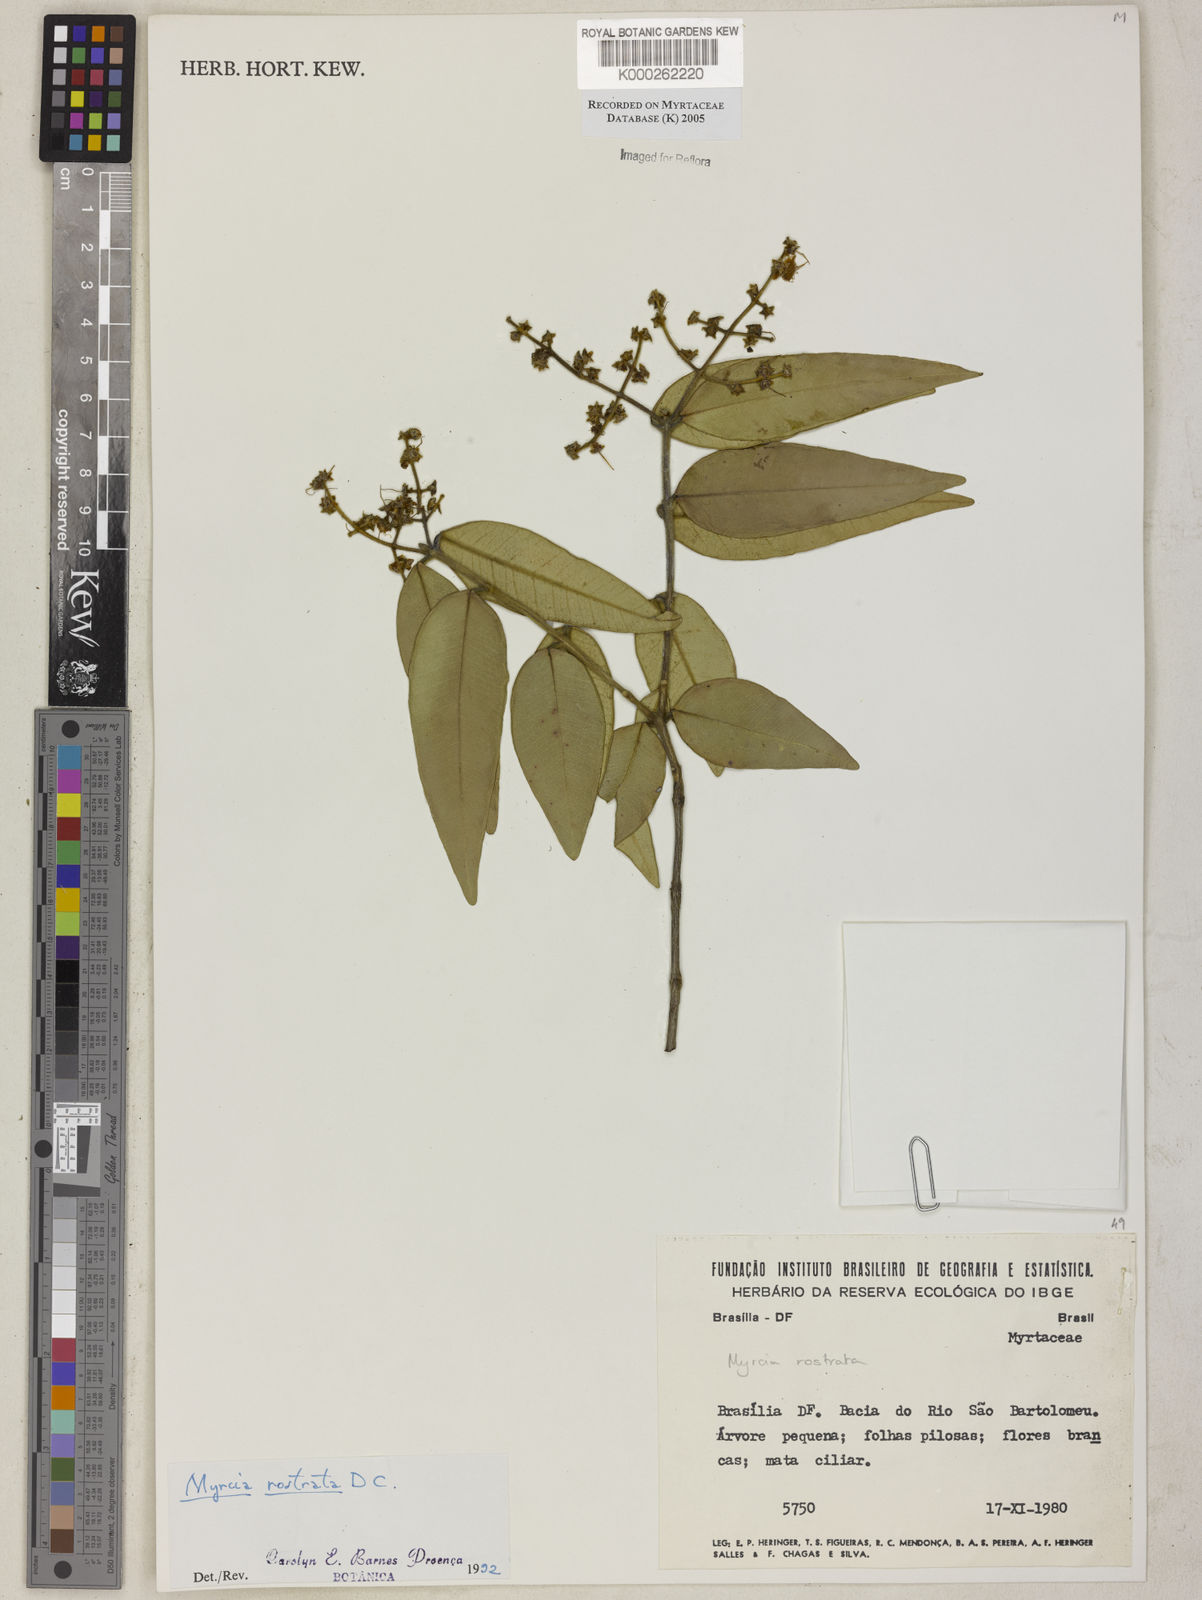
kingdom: Plantae
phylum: Tracheophyta
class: Magnoliopsida
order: Myrtales
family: Myrtaceae
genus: Myrcia
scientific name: Myrcia splendens
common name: Surinam cherry
